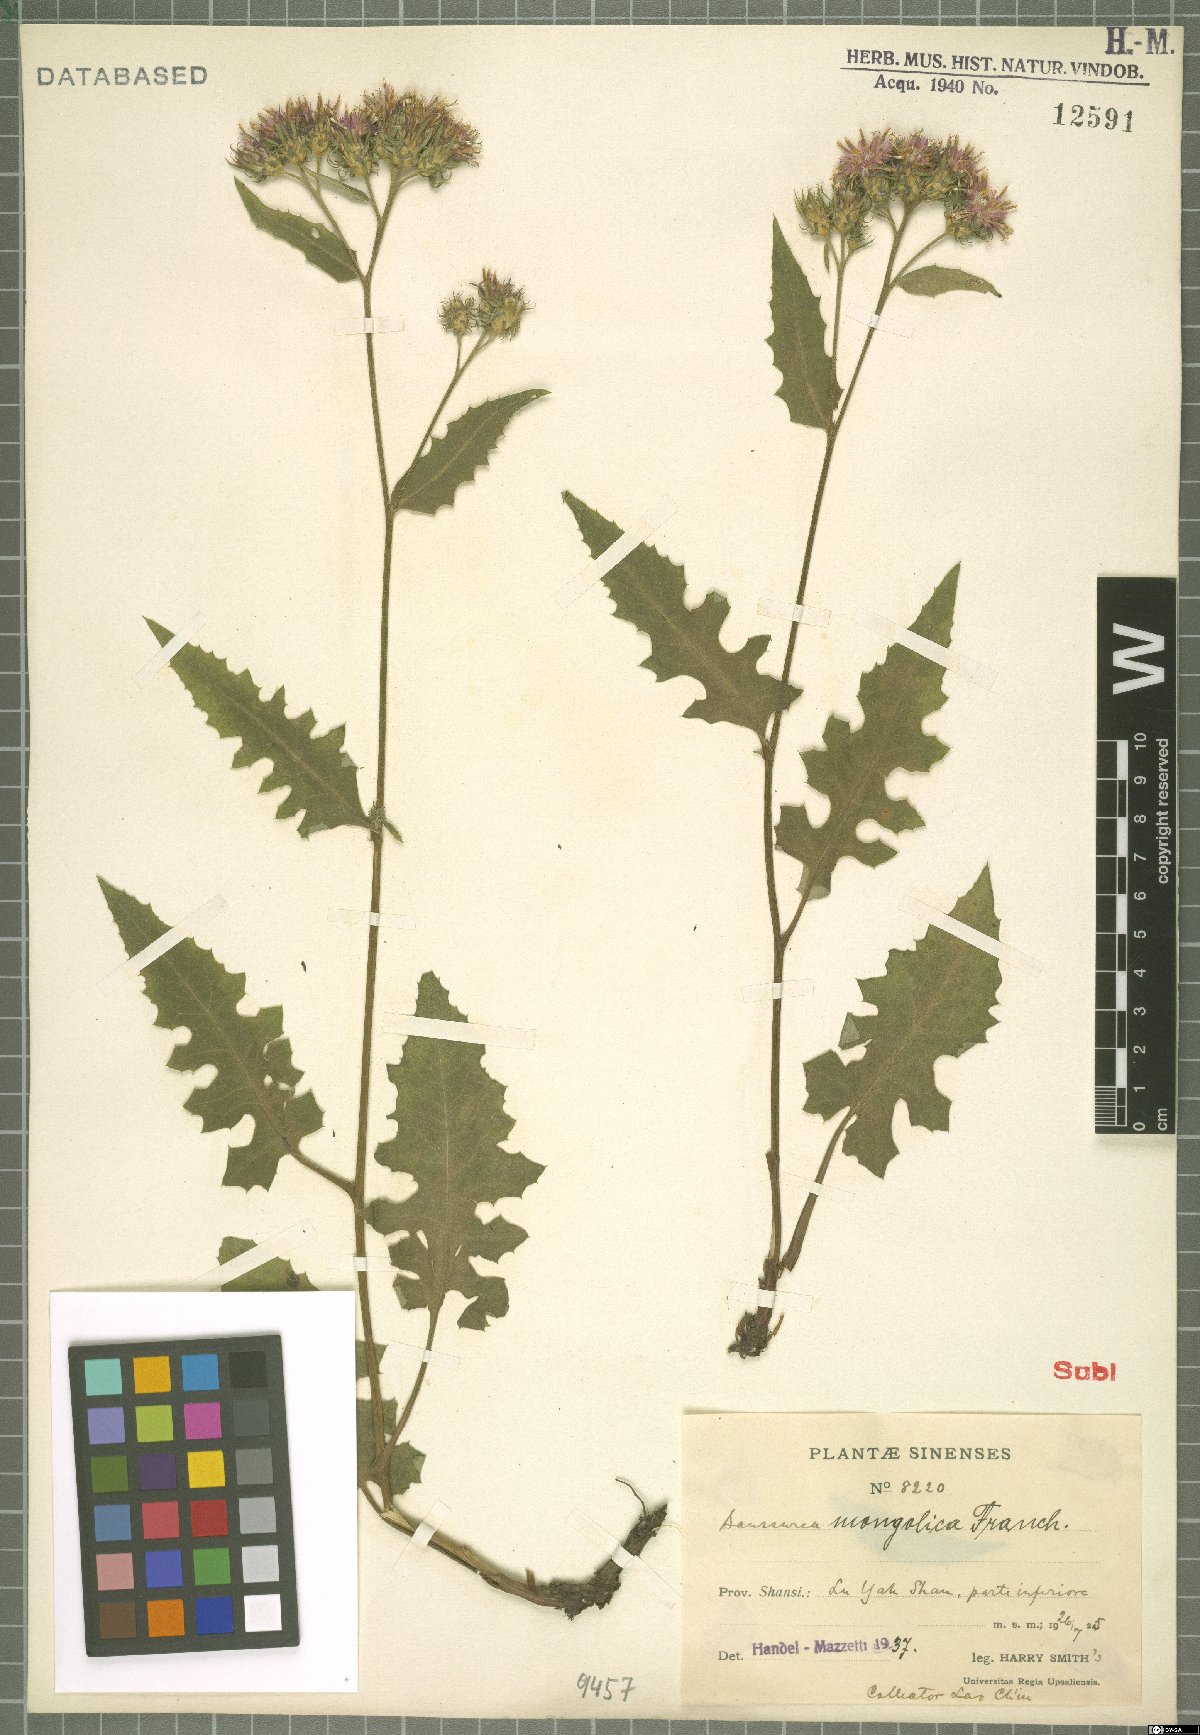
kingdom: Plantae
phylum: Tracheophyta
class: Magnoliopsida
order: Asterales
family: Asteraceae
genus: Saussurea
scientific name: Saussurea mongolica
